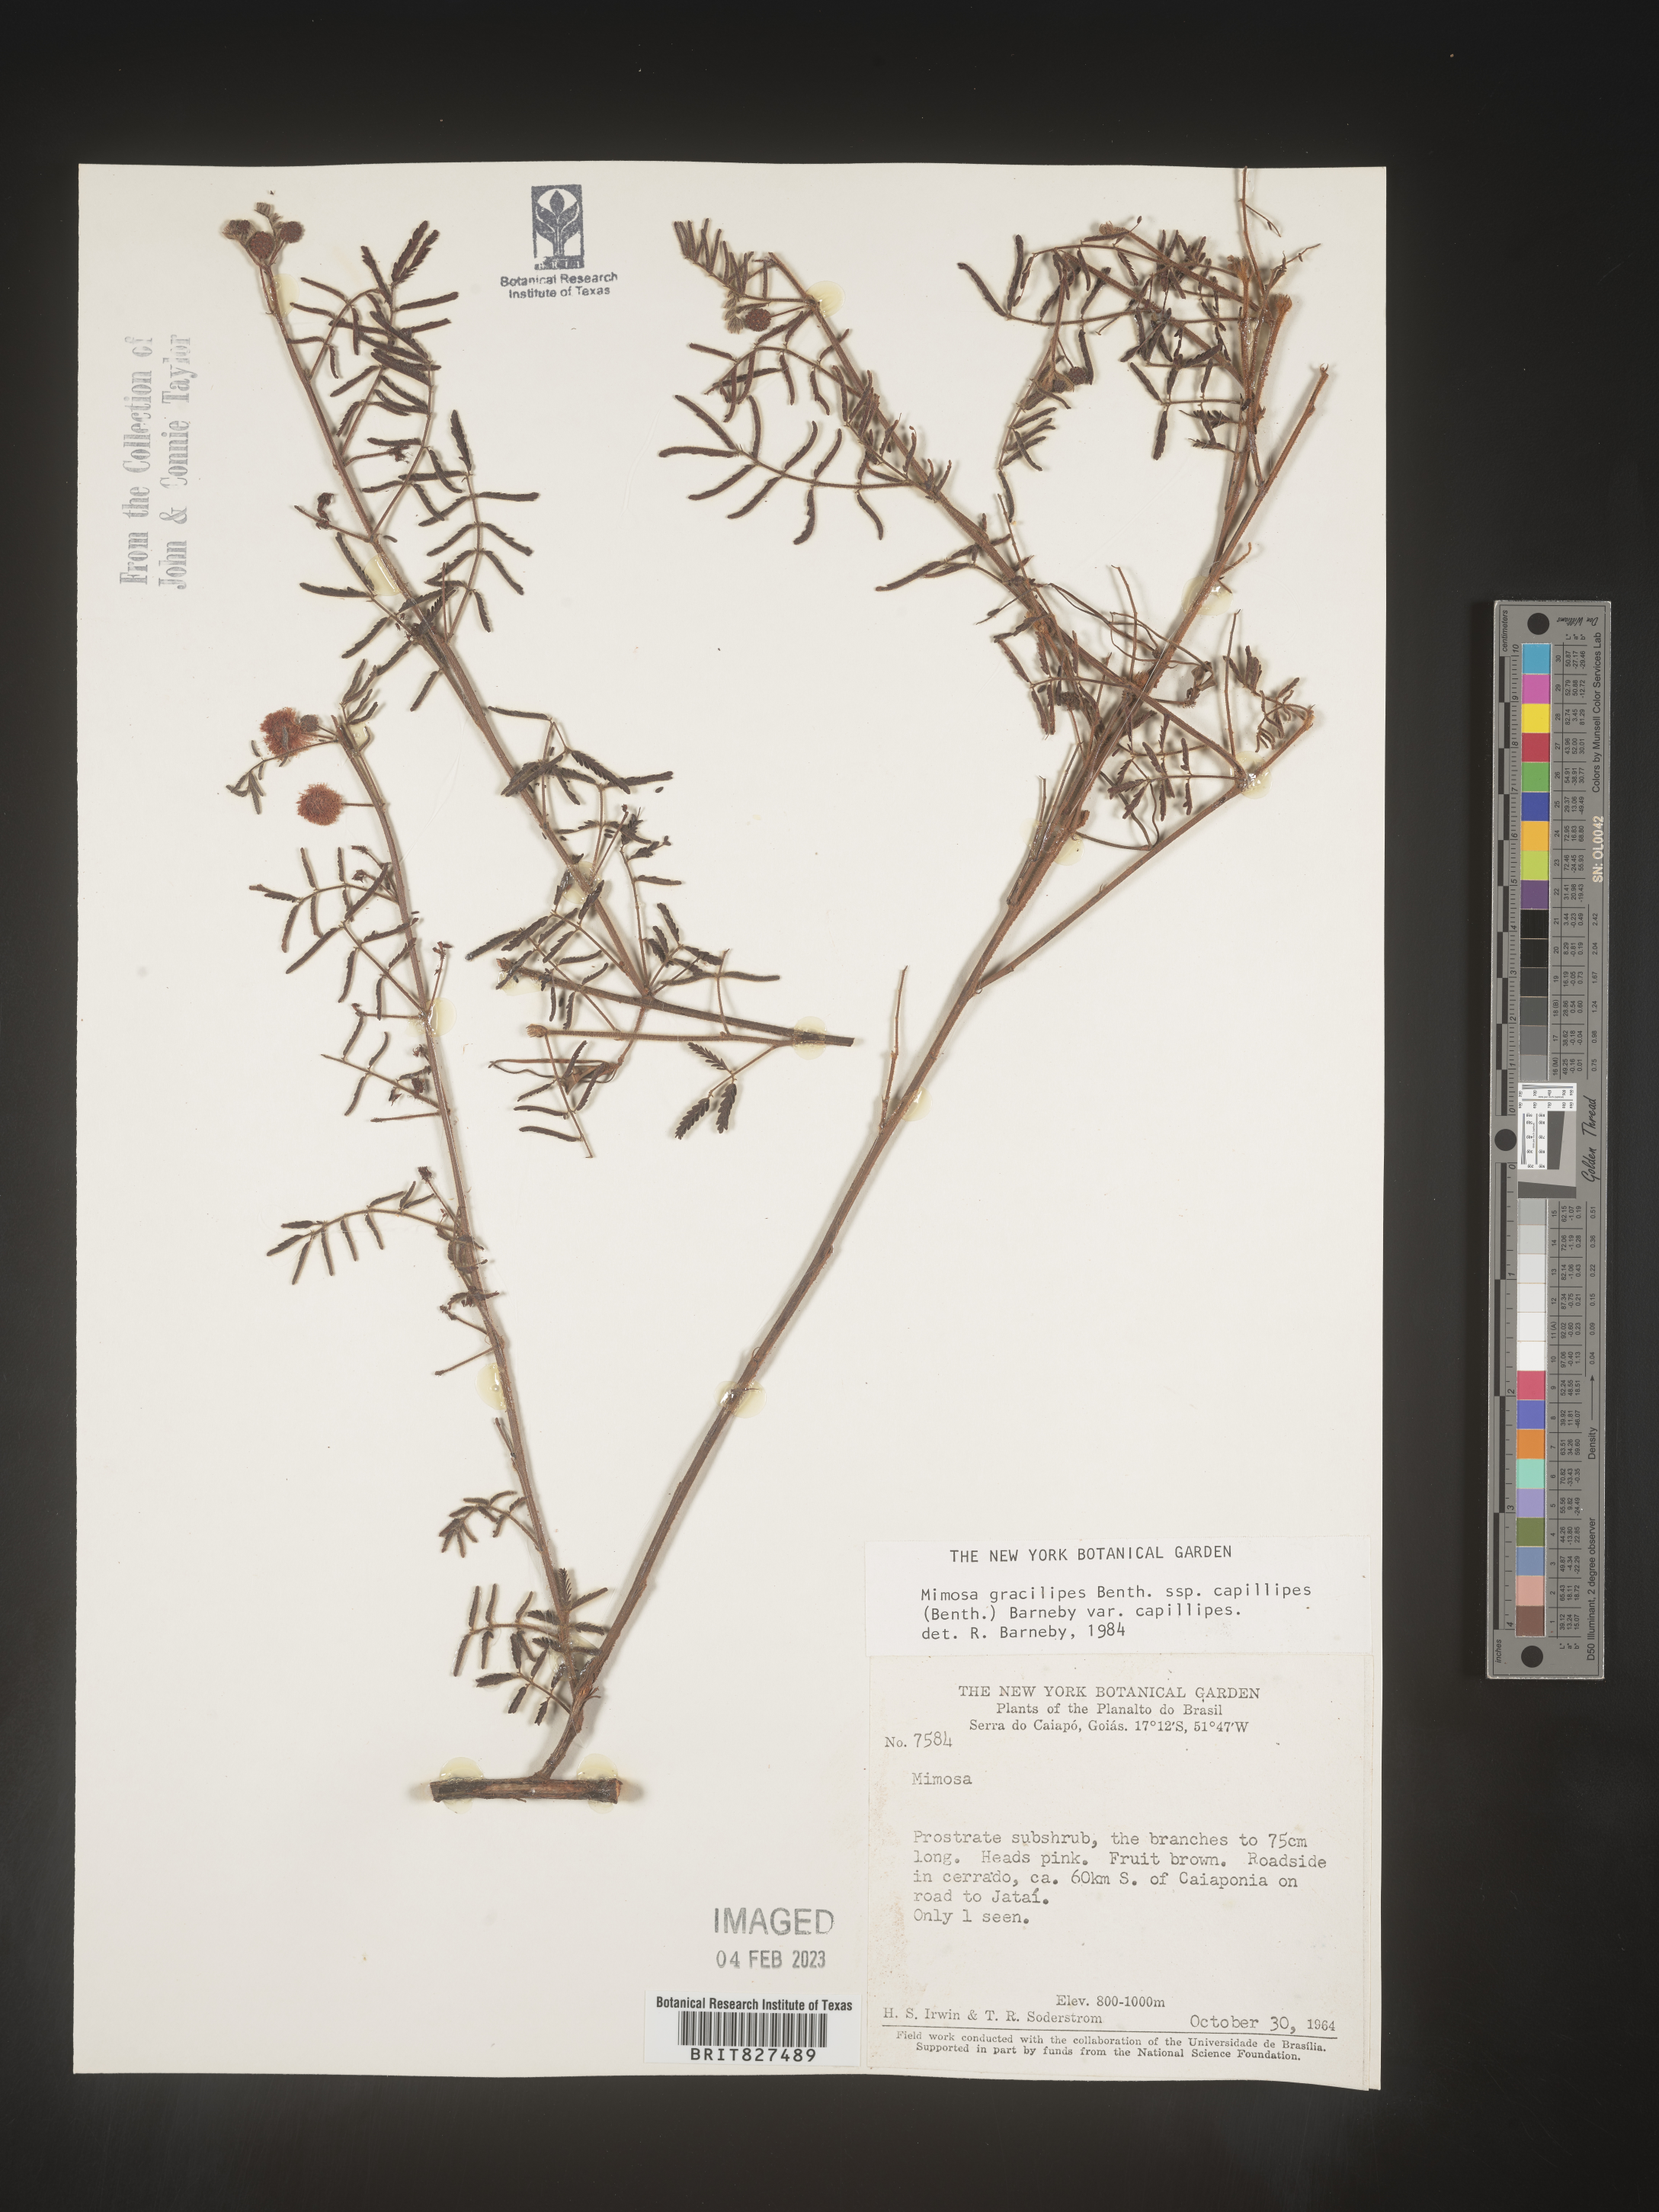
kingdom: Plantae
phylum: Tracheophyta
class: Magnoliopsida
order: Fabales
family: Fabaceae
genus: Mimosa
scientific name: Mimosa
